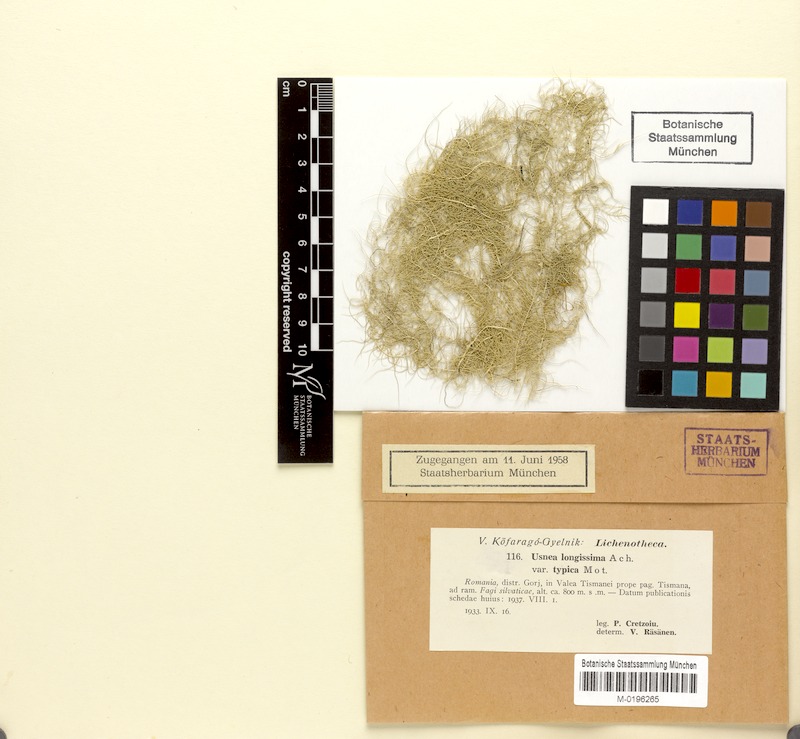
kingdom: Fungi
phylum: Ascomycota
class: Lecanoromycetes
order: Lecanorales
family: Parmeliaceae
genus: Dolichousnea
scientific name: Dolichousnea longissima
